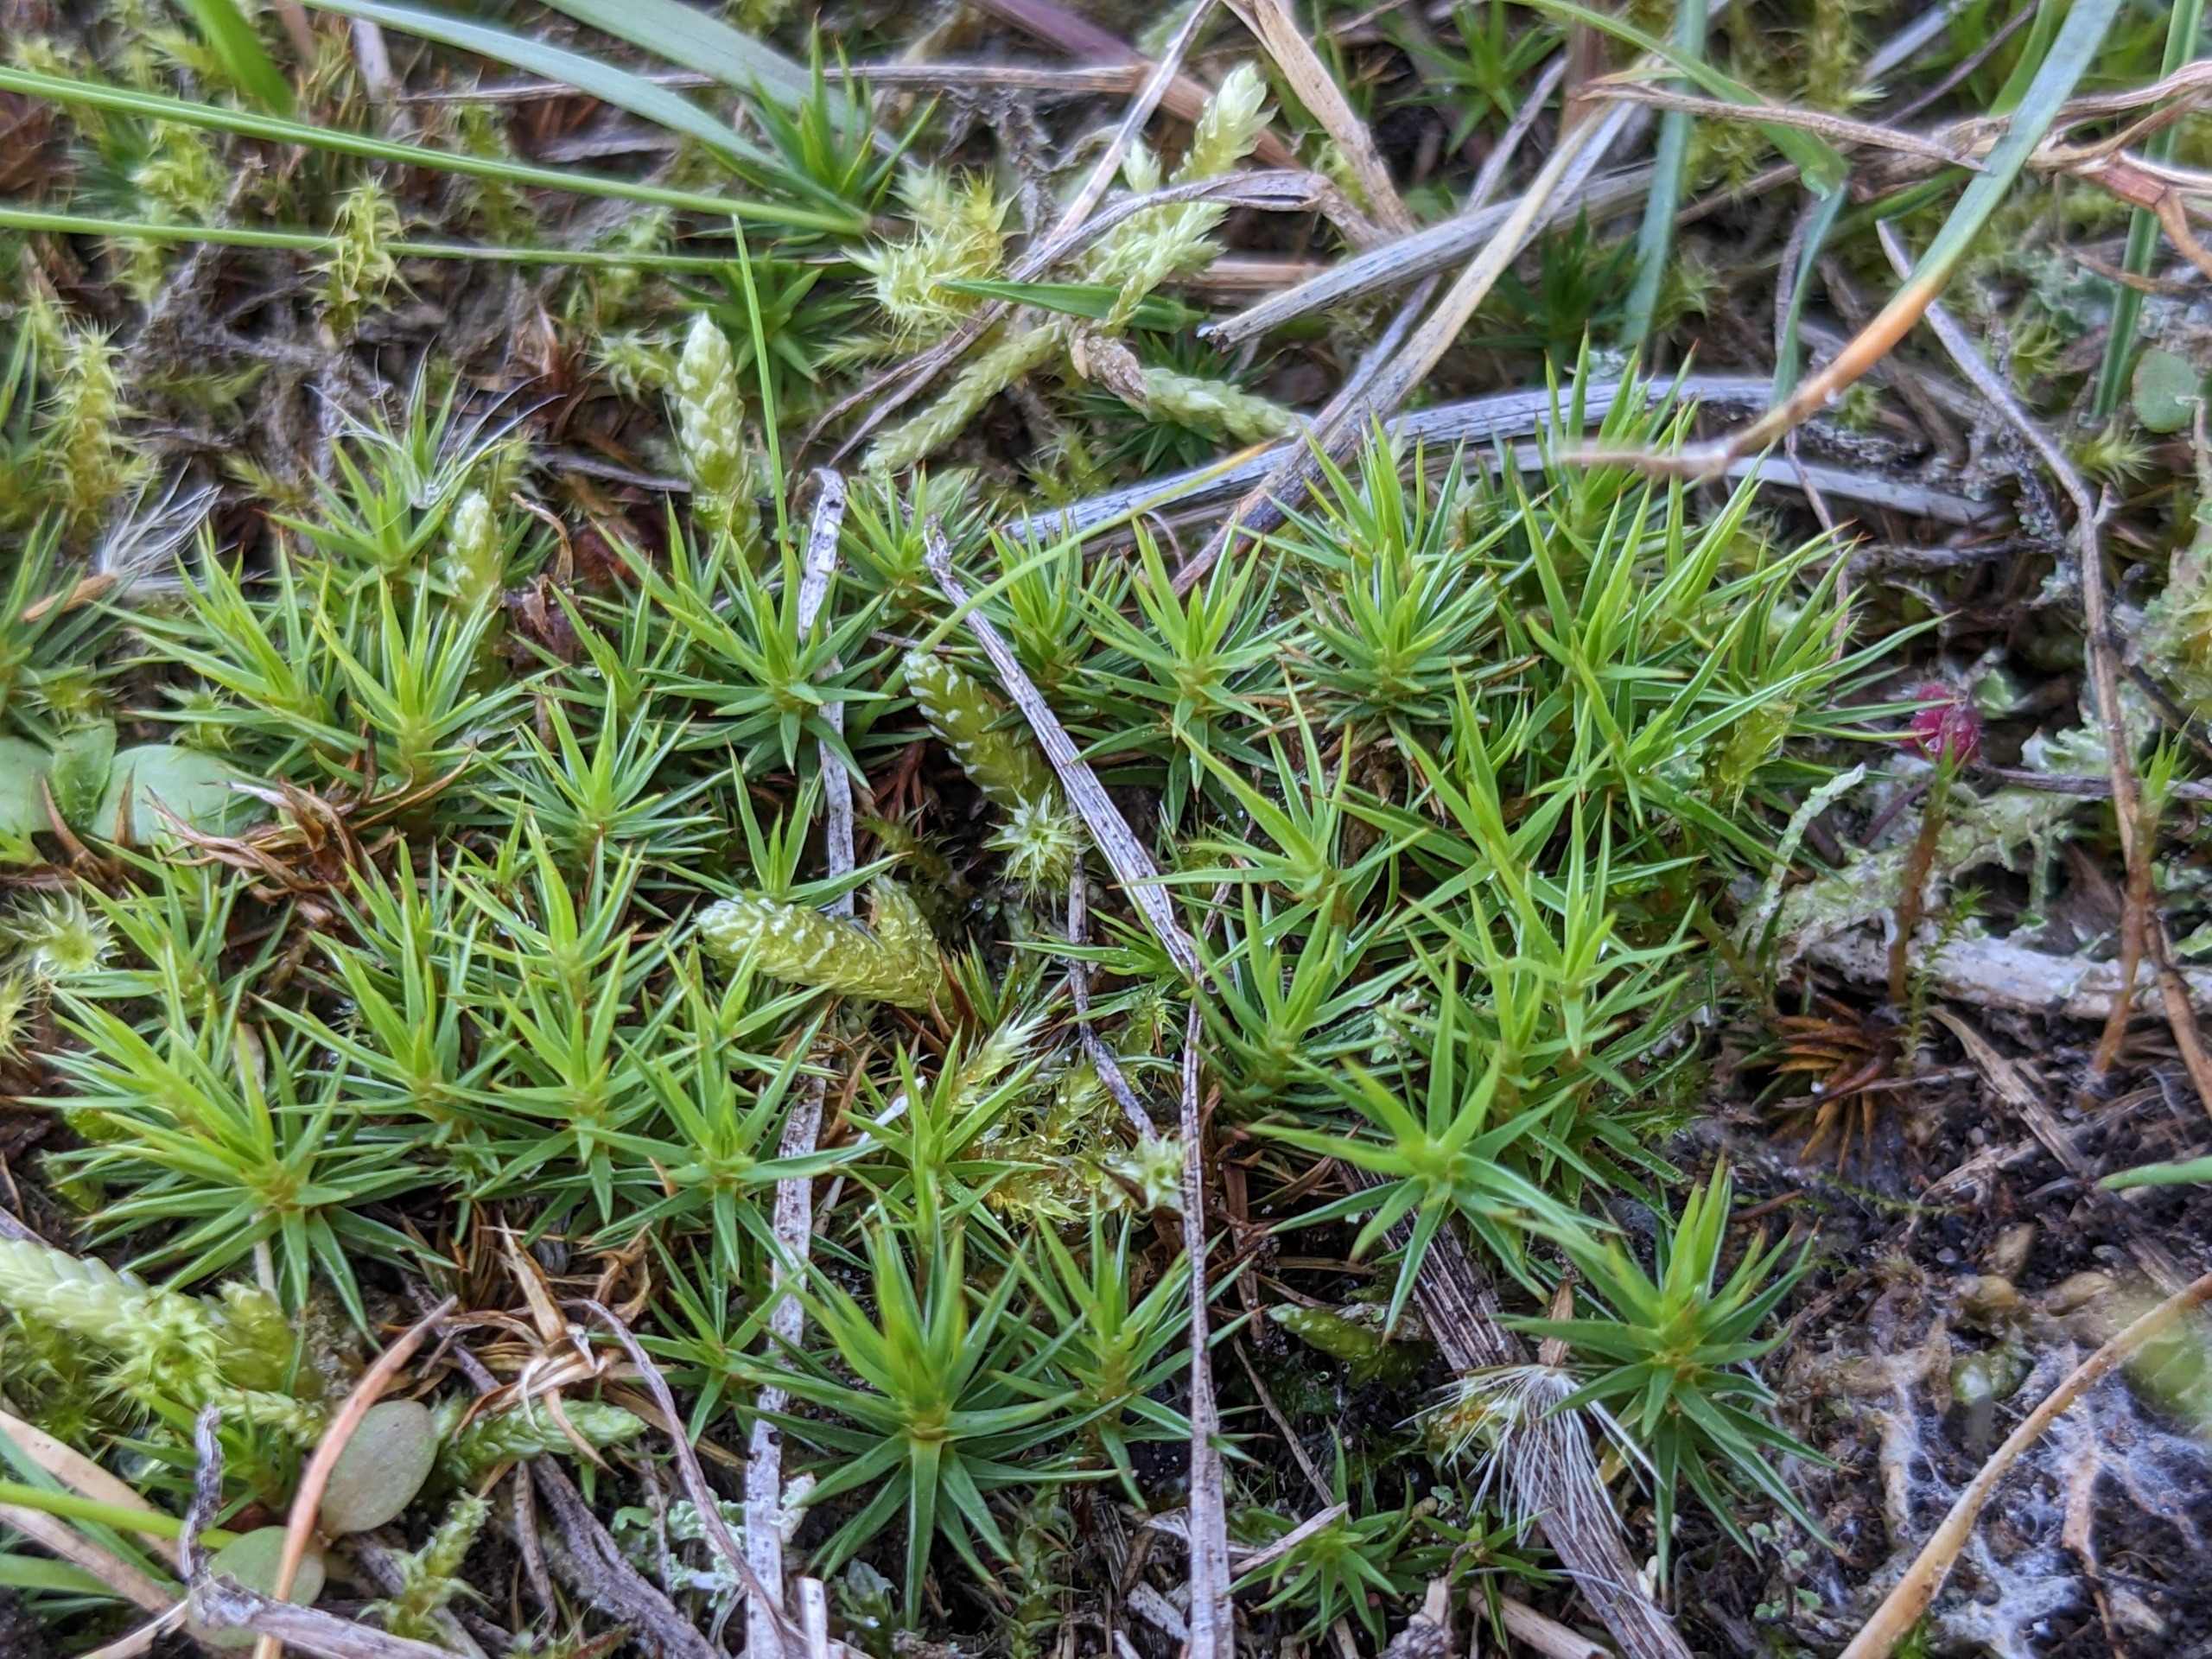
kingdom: Plantae
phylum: Bryophyta
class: Polytrichopsida
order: Polytrichales
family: Polytrichaceae
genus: Polytrichum
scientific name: Polytrichum juniperinum
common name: Ene-jomfruhår
